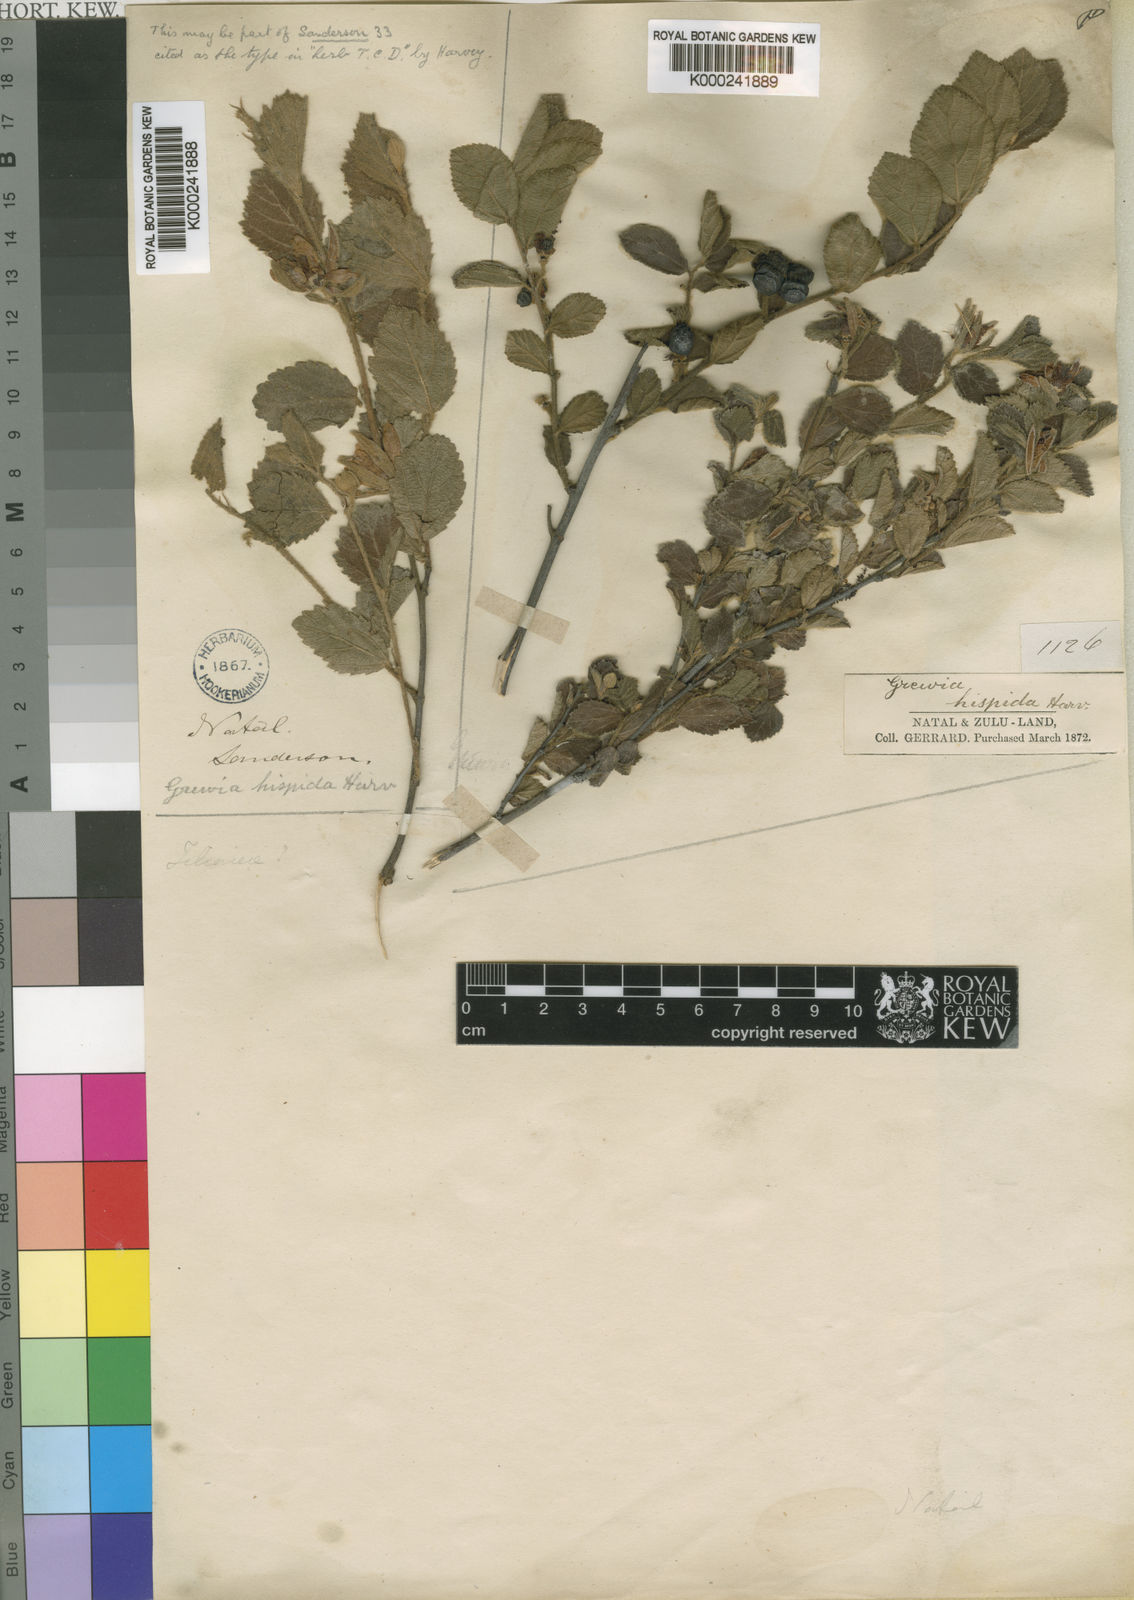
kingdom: Plantae
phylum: Tracheophyta
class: Magnoliopsida
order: Malvales
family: Malvaceae
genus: Grewia
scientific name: Grewia hispida
